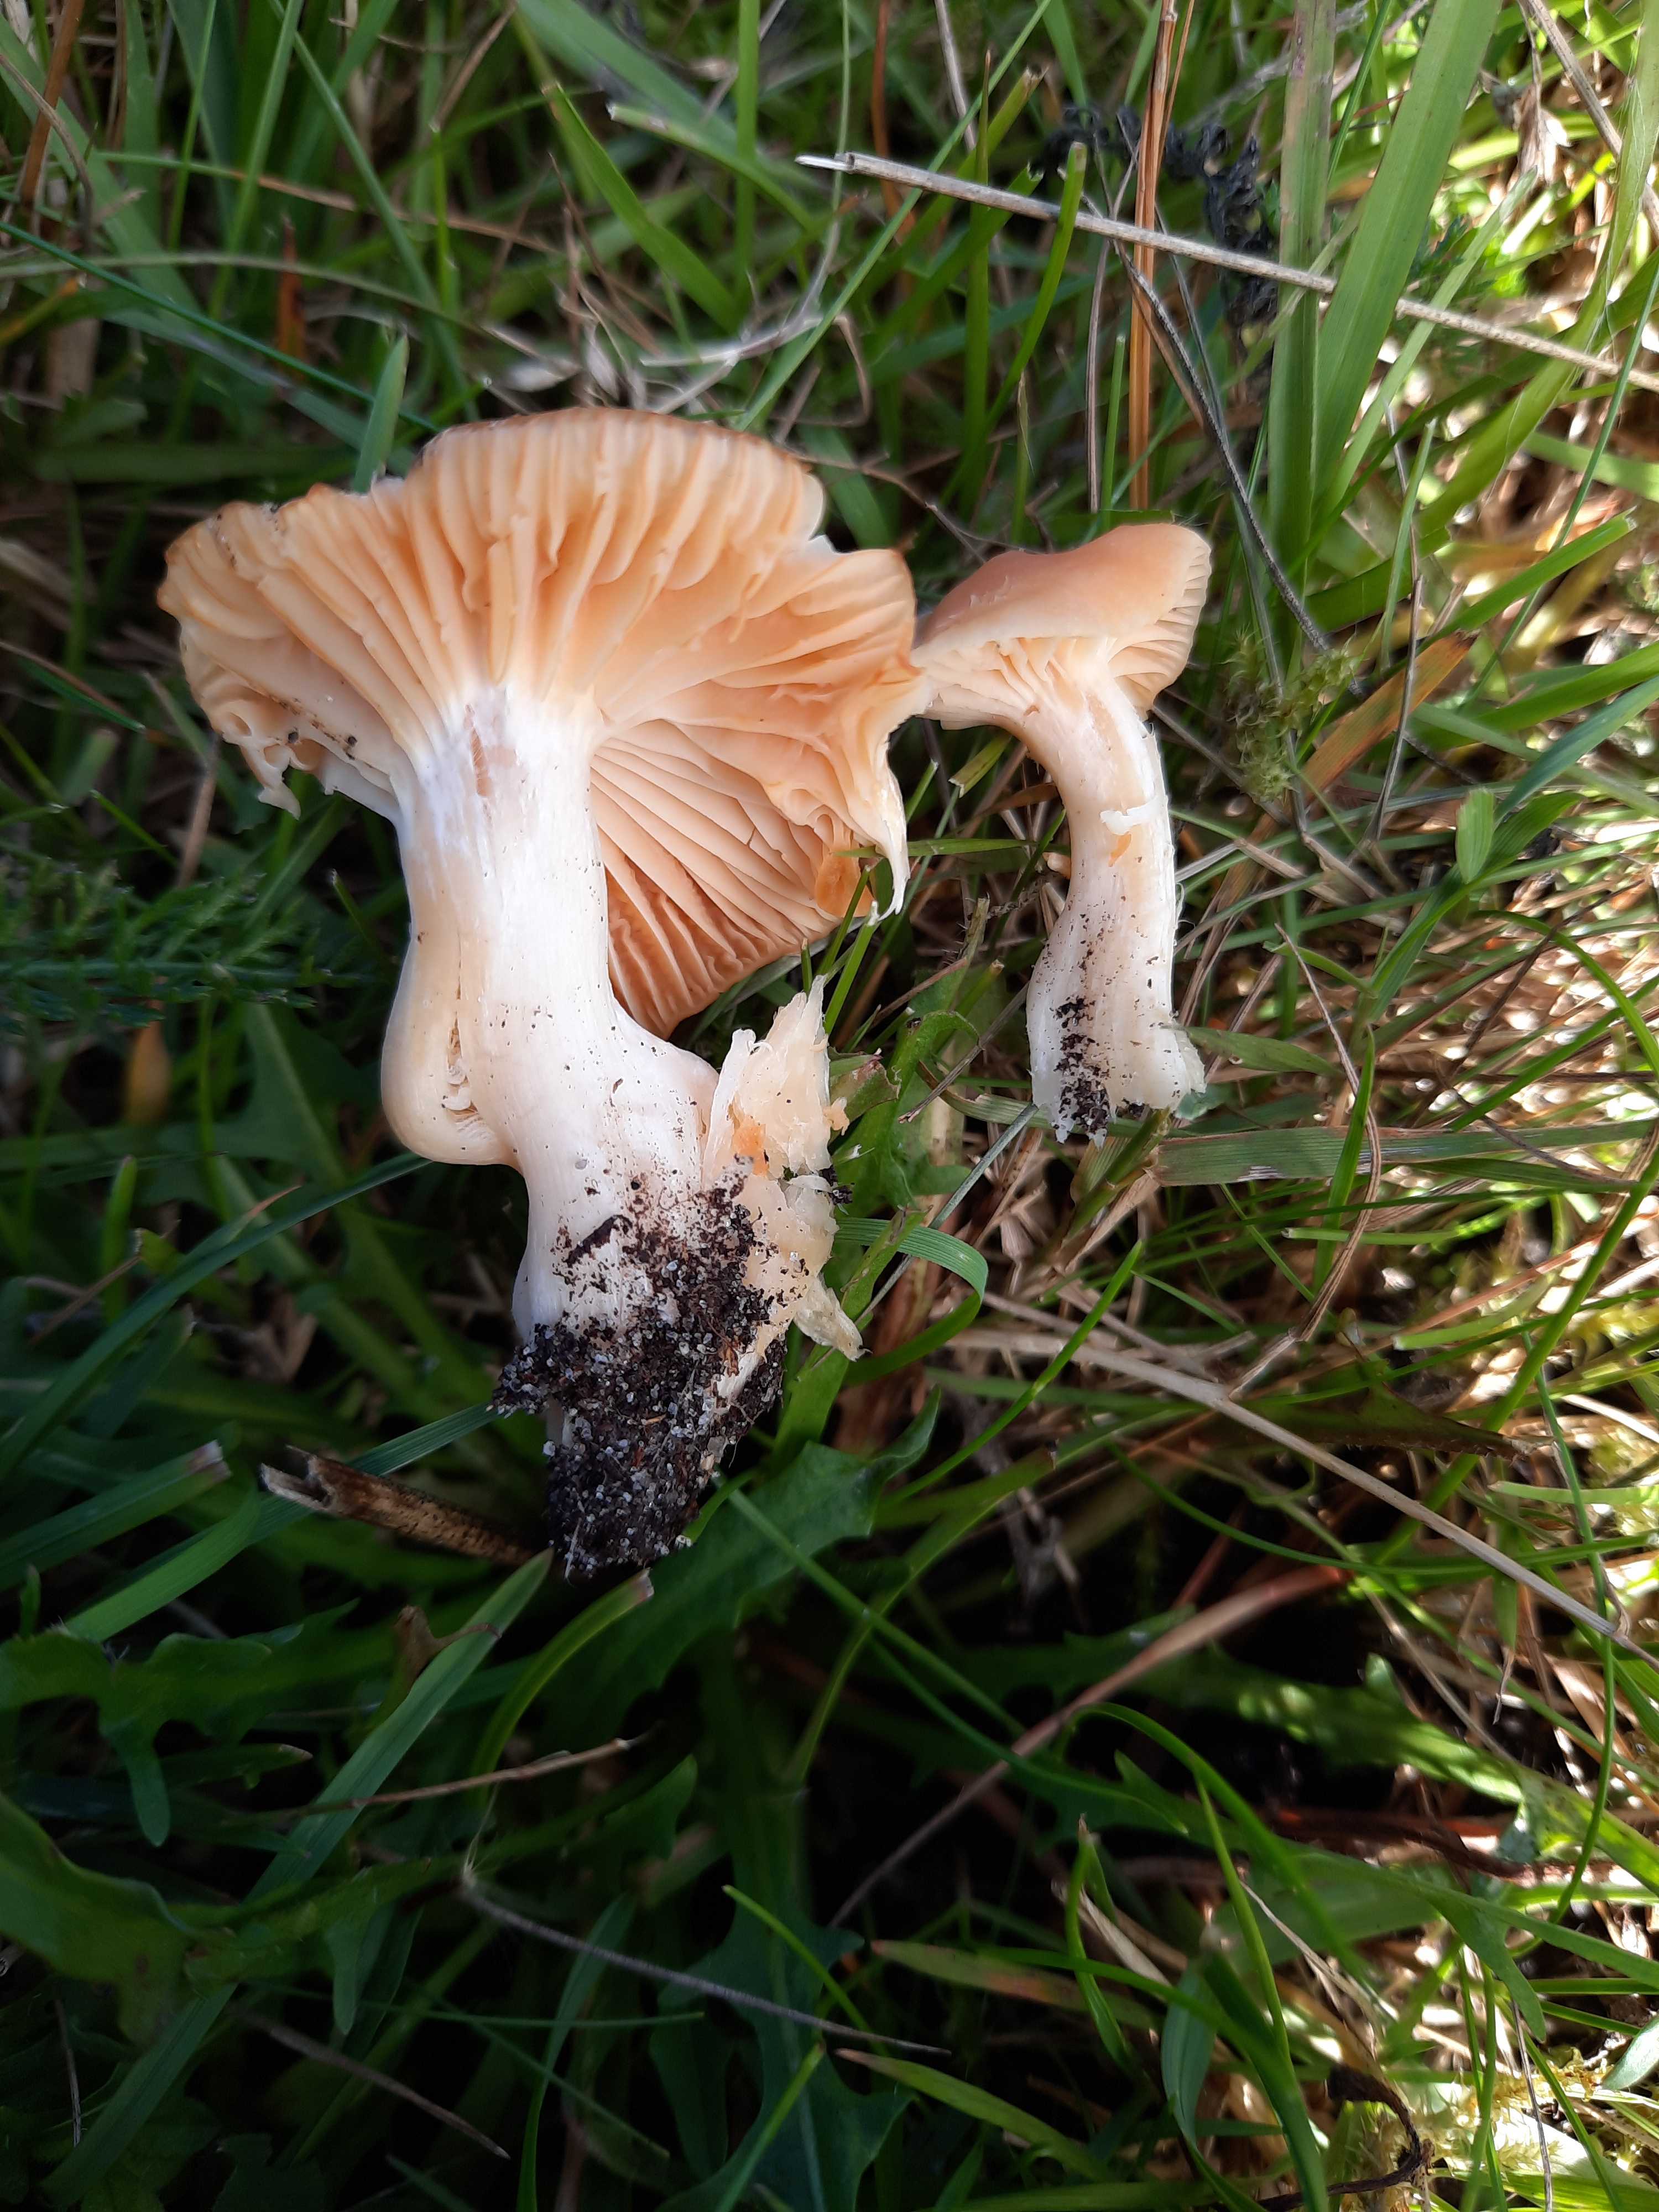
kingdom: Fungi
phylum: Basidiomycota
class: Agaricomycetes
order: Agaricales
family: Hygrophoraceae
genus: Cuphophyllus
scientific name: Cuphophyllus pratensis
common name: eng-vokshat
